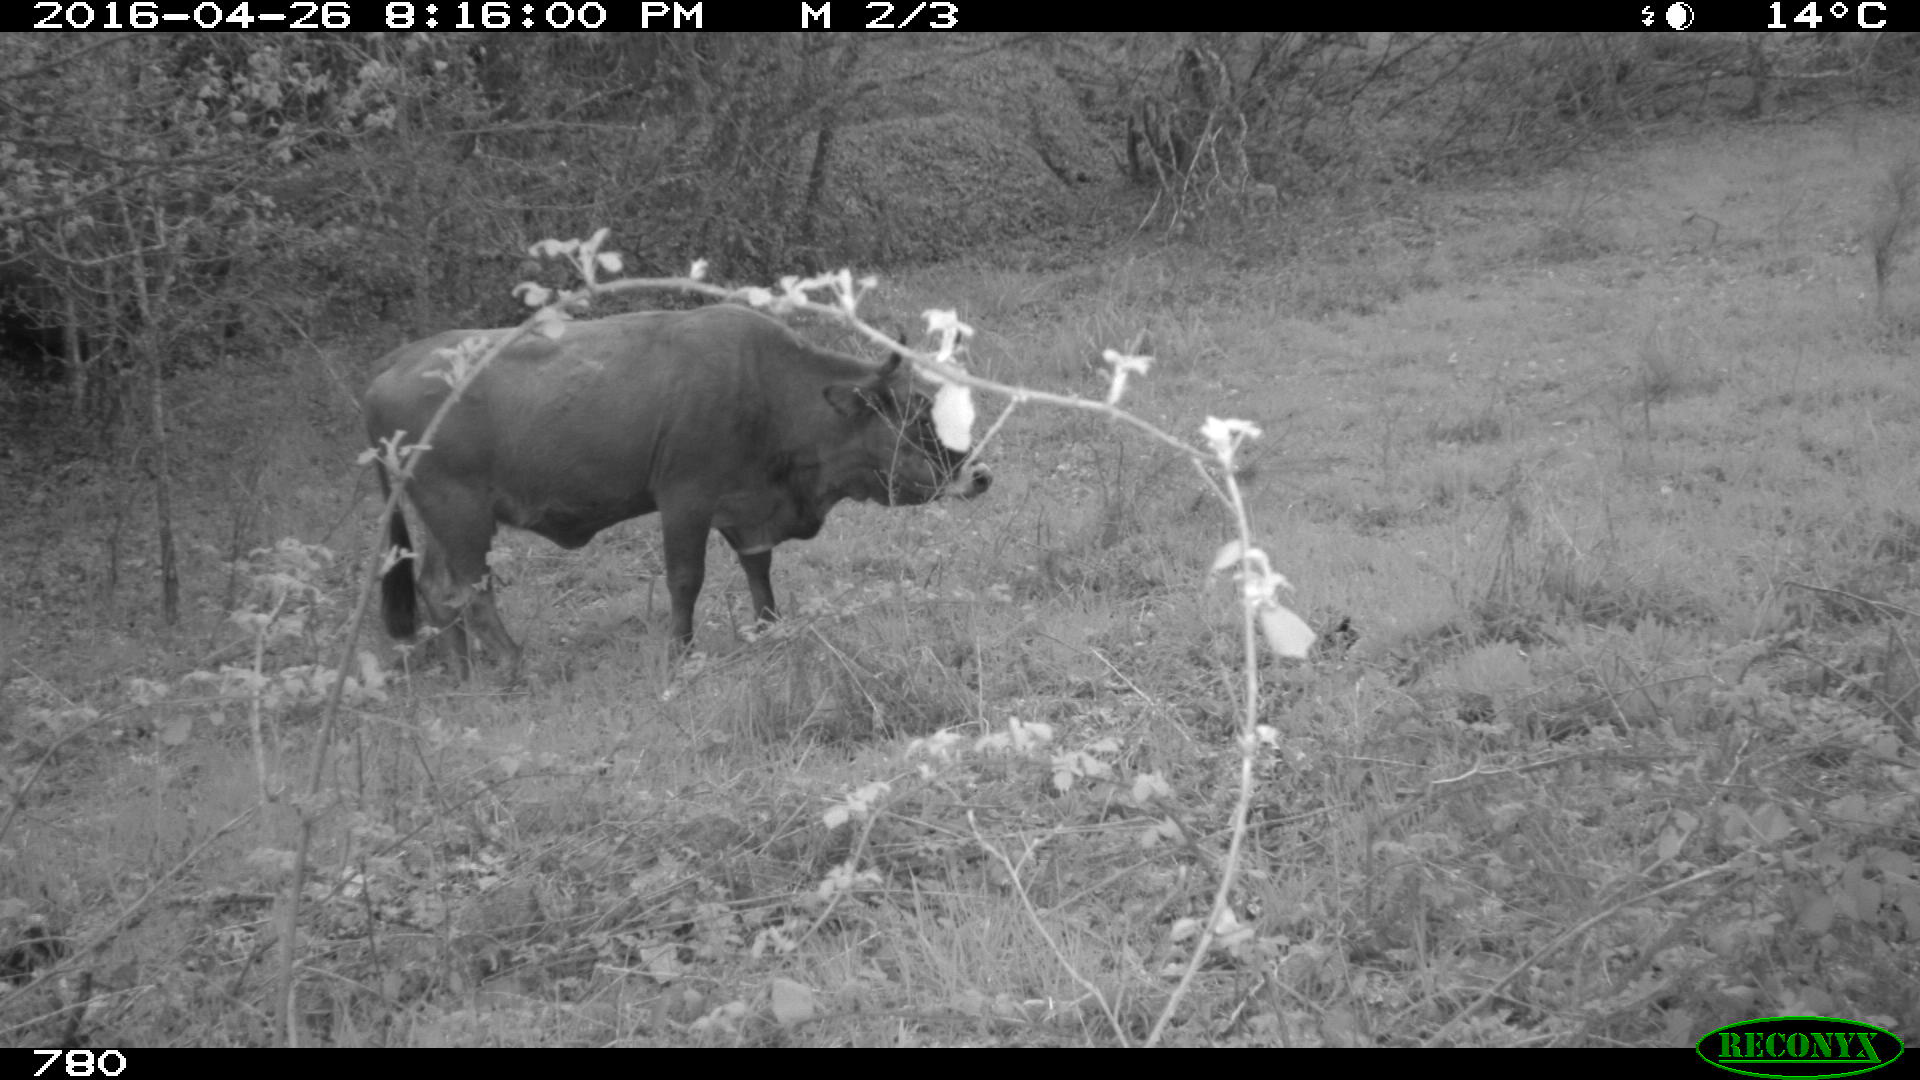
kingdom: Animalia
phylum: Chordata
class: Mammalia
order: Artiodactyla
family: Bovidae
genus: Bos
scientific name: Bos taurus
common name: Domesticated cattle
